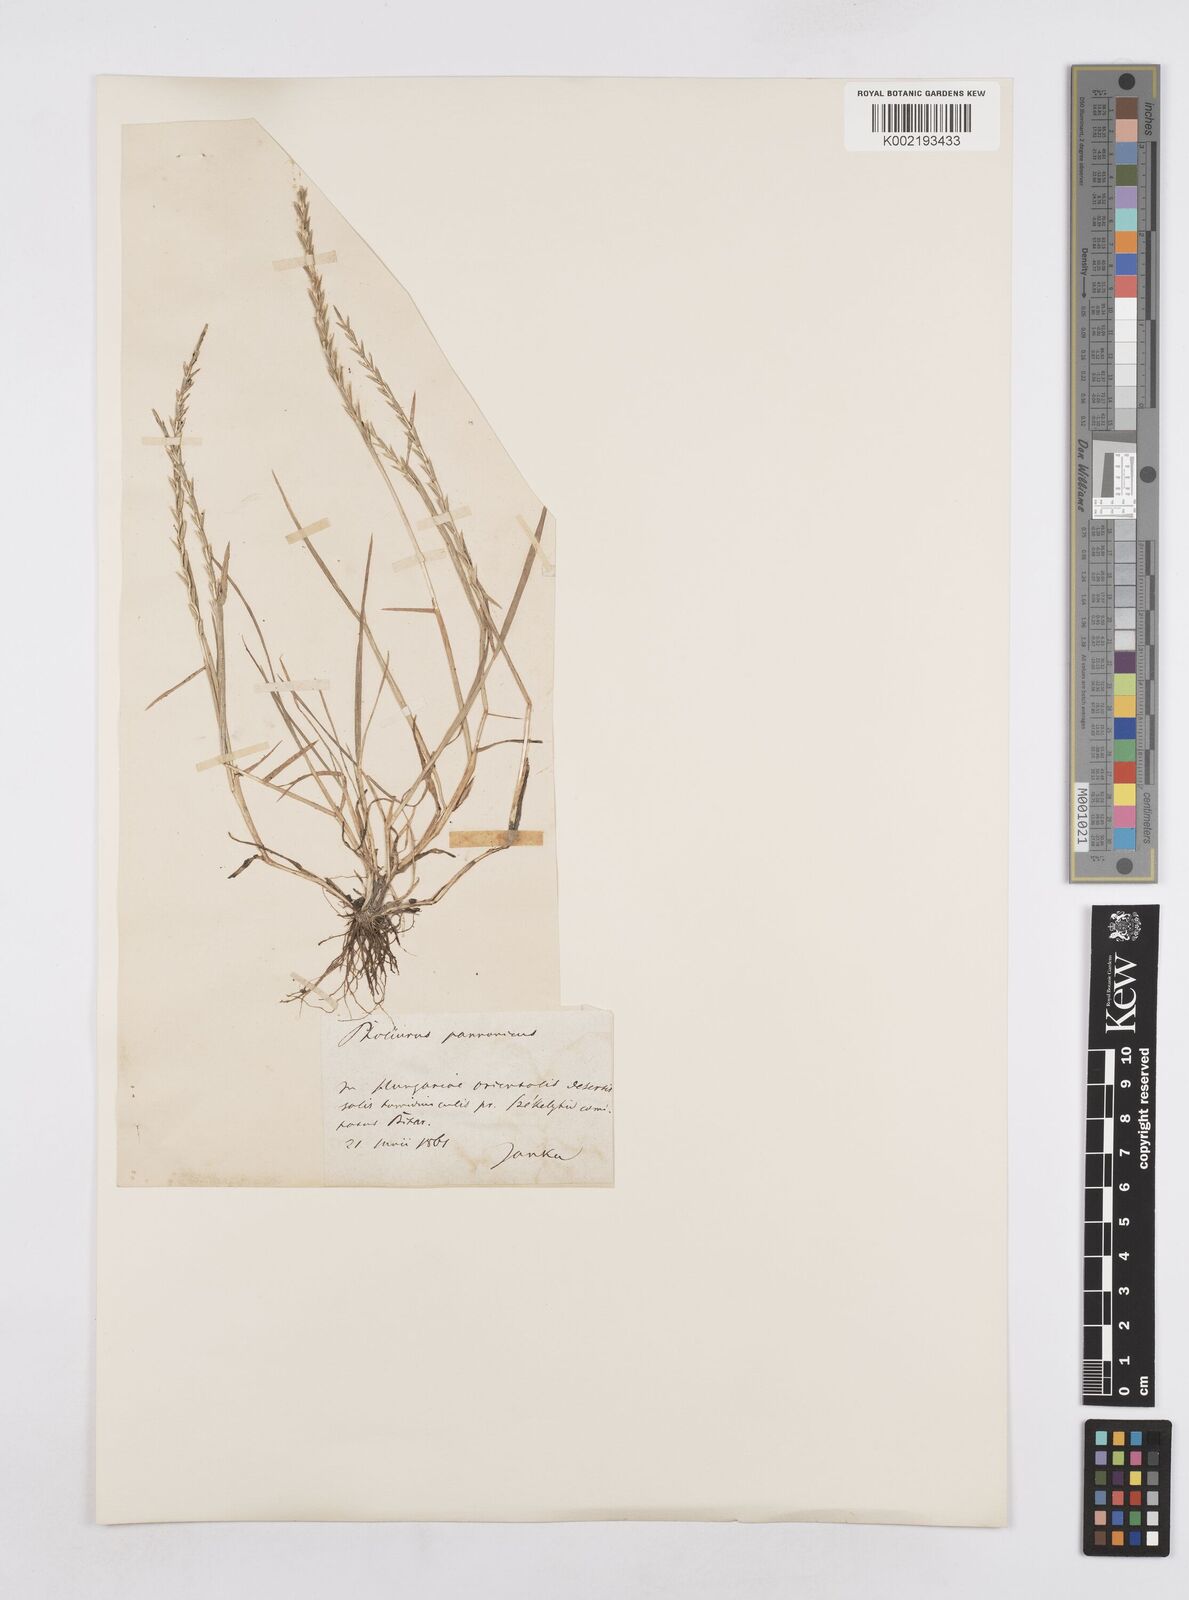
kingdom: Plantae
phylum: Tracheophyta
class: Liliopsida
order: Poales
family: Poaceae
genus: Pholiurus
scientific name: Pholiurus pannonicus
